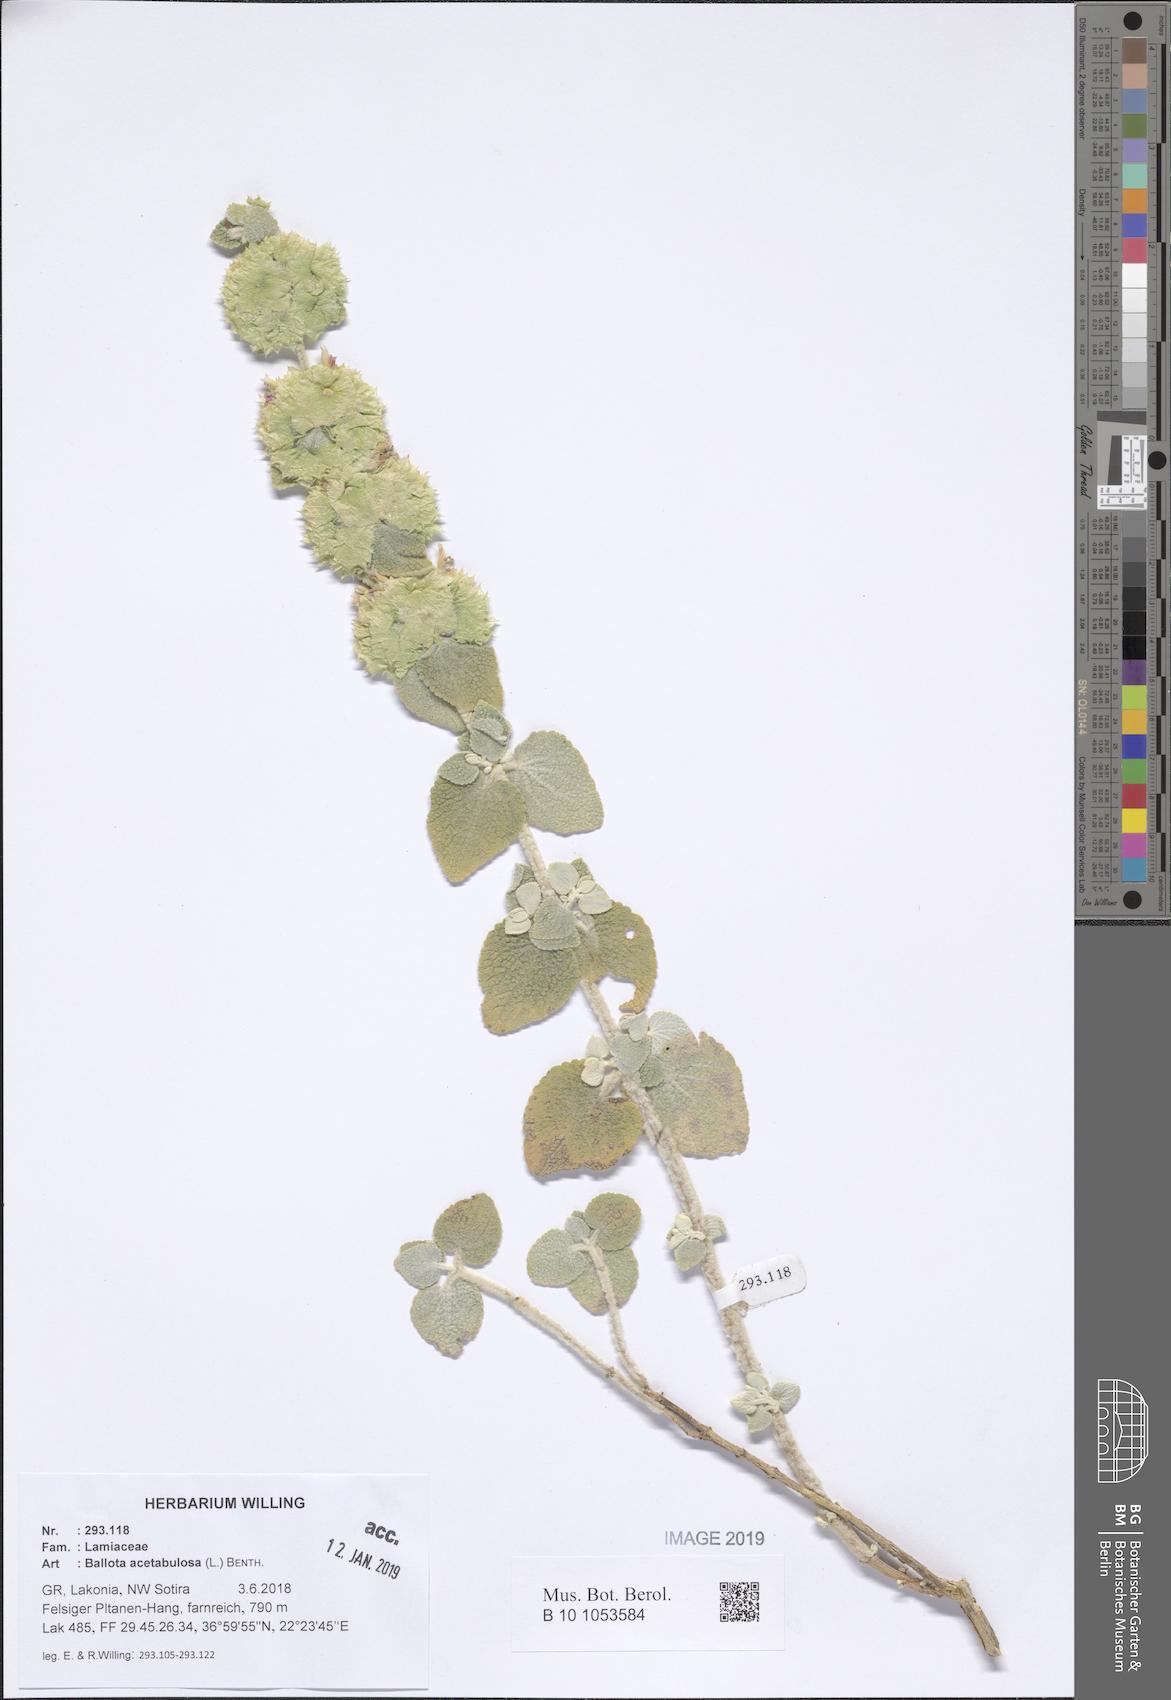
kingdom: Plantae
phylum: Tracheophyta
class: Magnoliopsida
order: Lamiales
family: Lamiaceae
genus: Pseudodictamnus
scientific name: Pseudodictamnus acetabulosus
